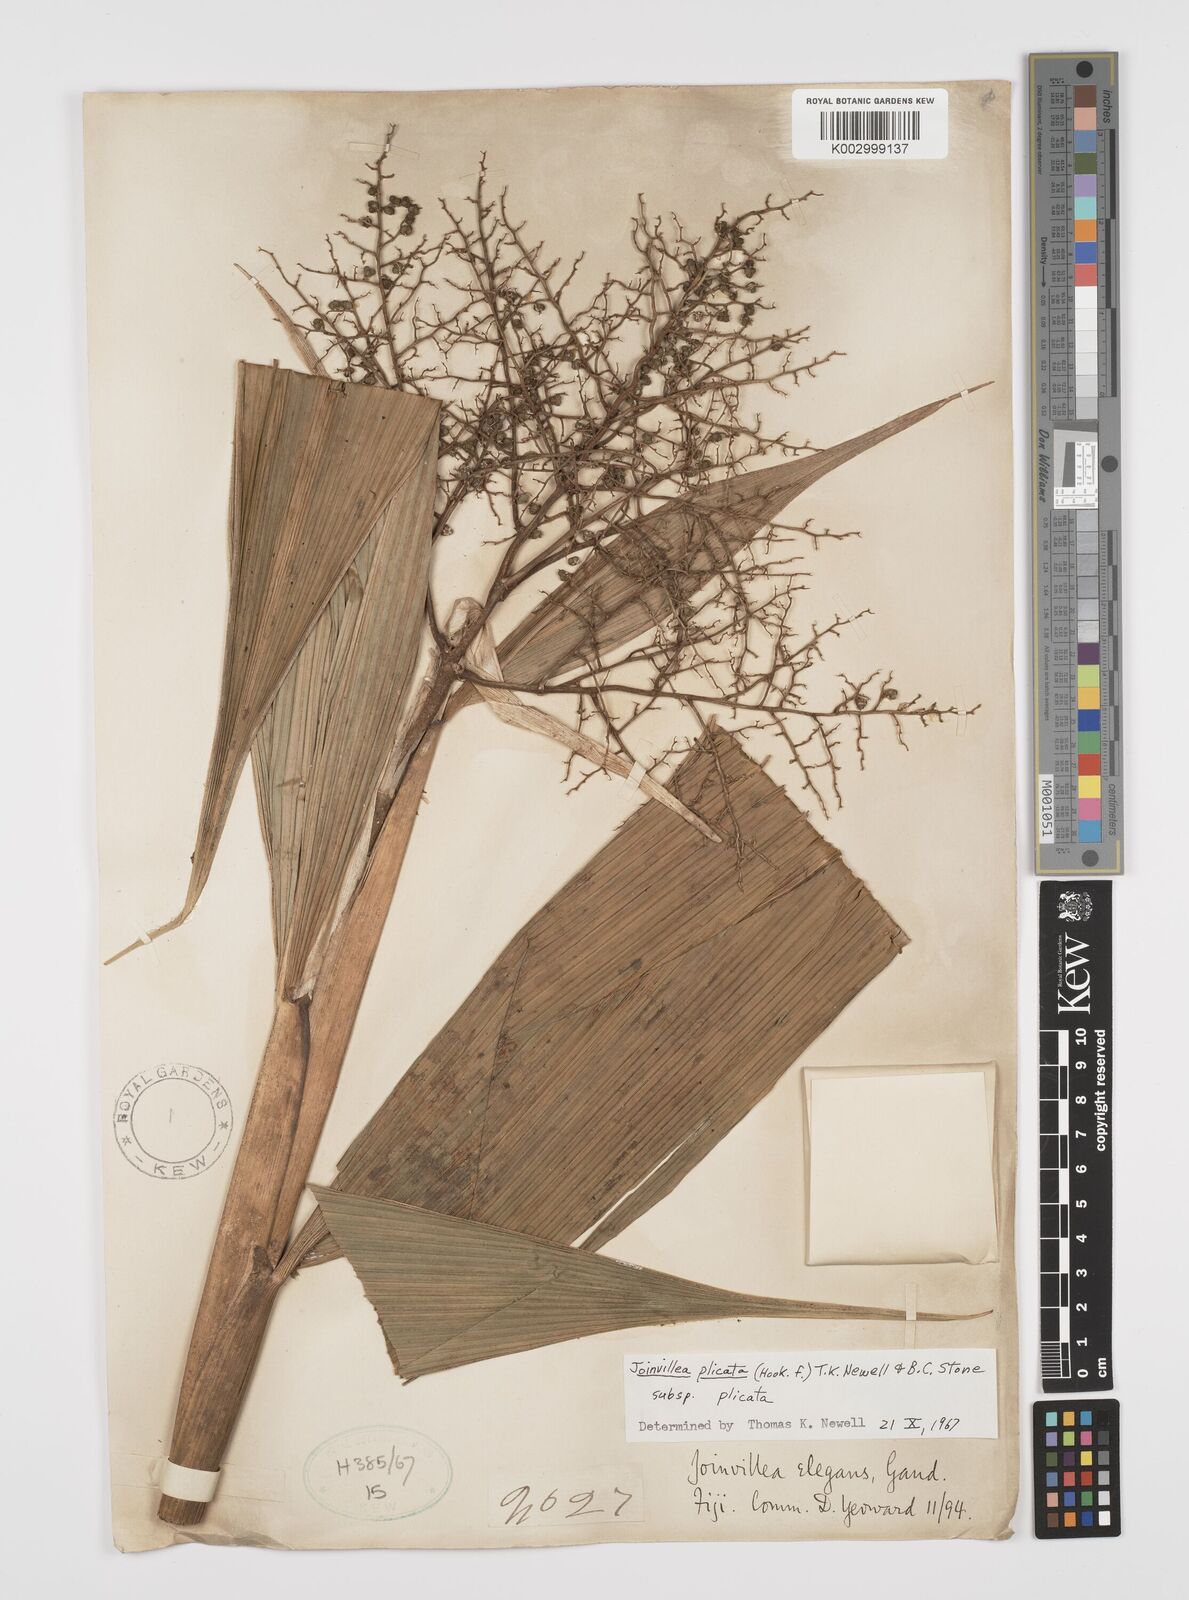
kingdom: Plantae
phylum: Tracheophyta
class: Liliopsida
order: Poales
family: Joinvilleaceae
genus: Joinvillea
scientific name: Joinvillea plicata
